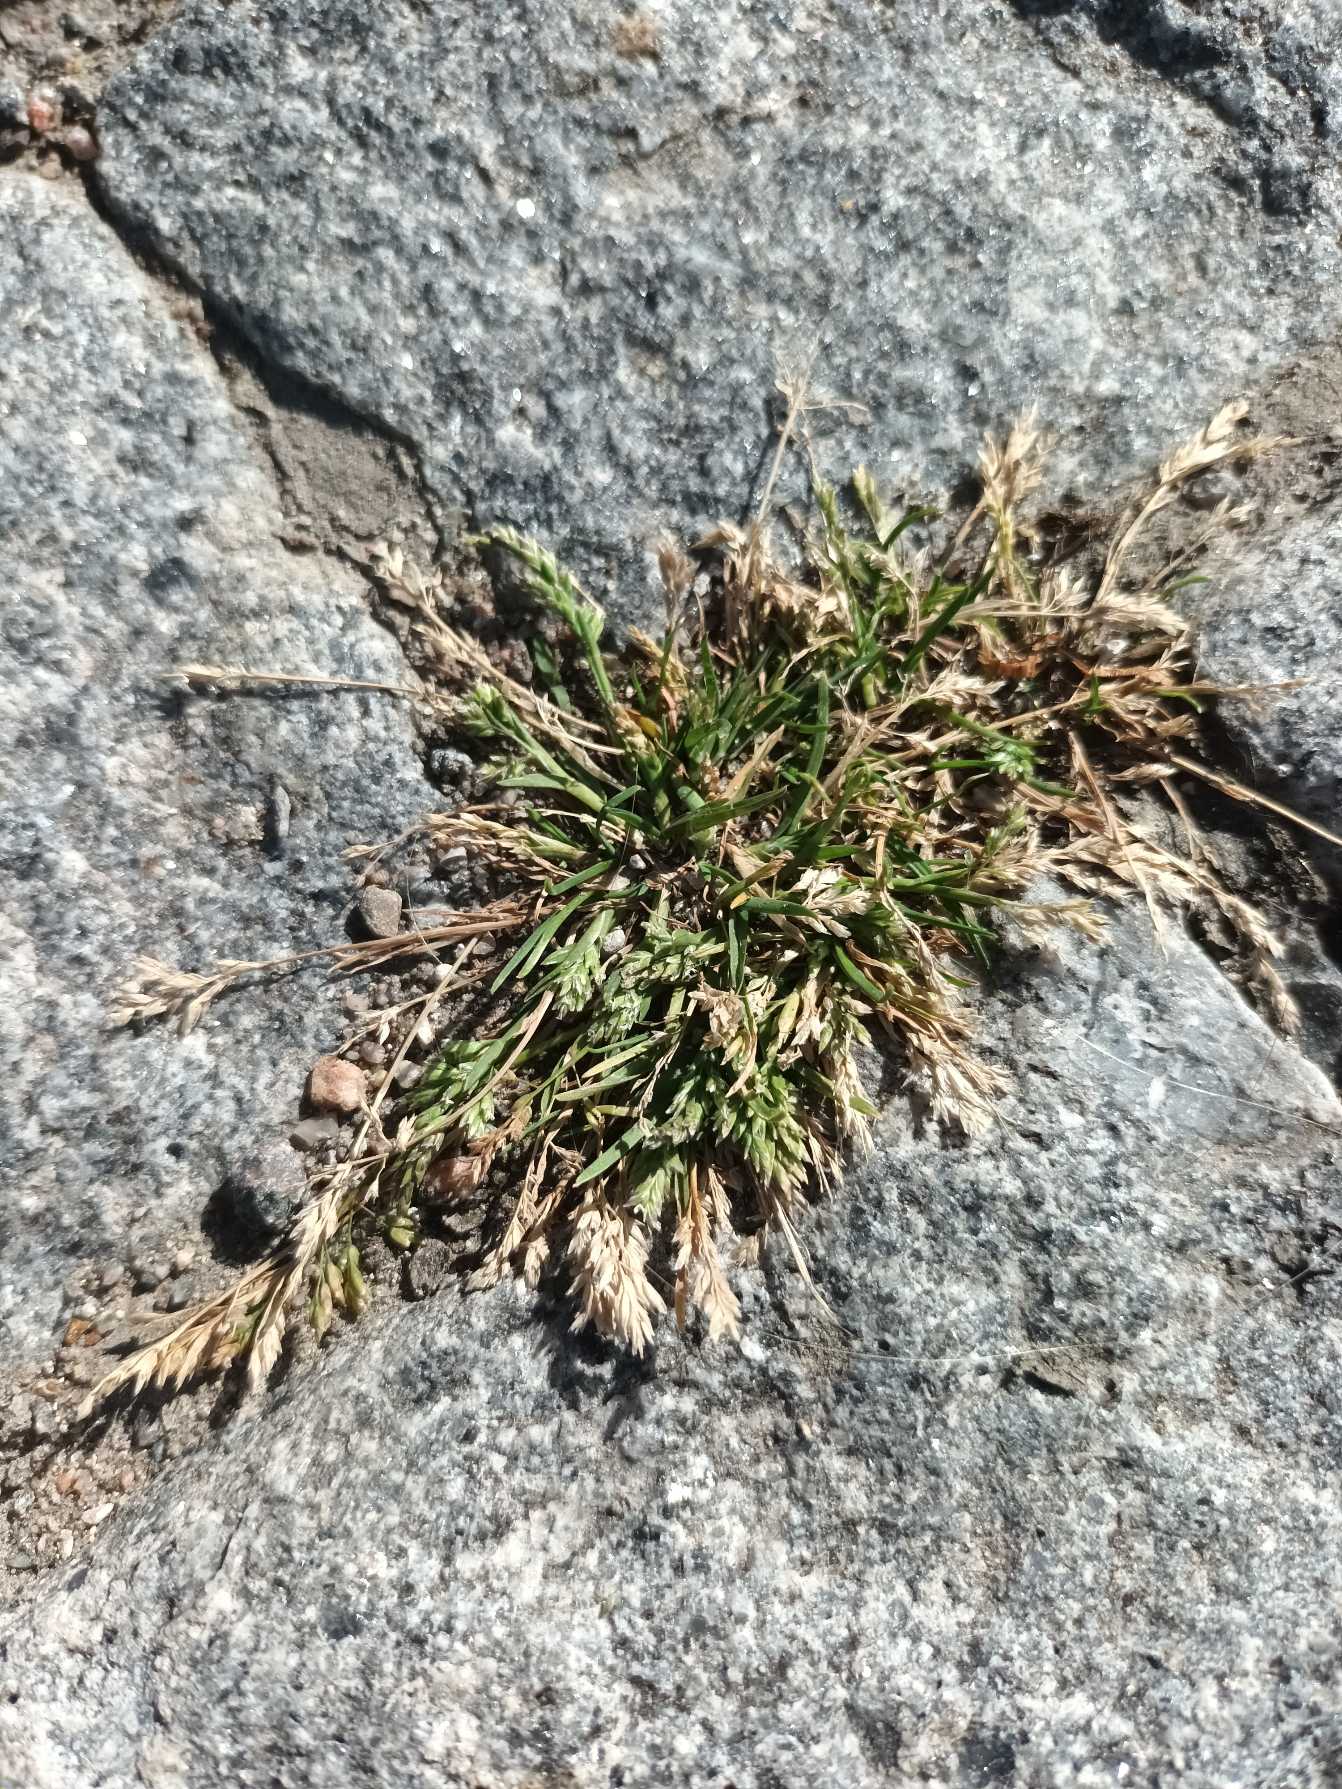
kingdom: Plantae
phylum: Tracheophyta
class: Liliopsida
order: Poales
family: Poaceae
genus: Poa
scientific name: Poa annua
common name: Enårig rapgræs
